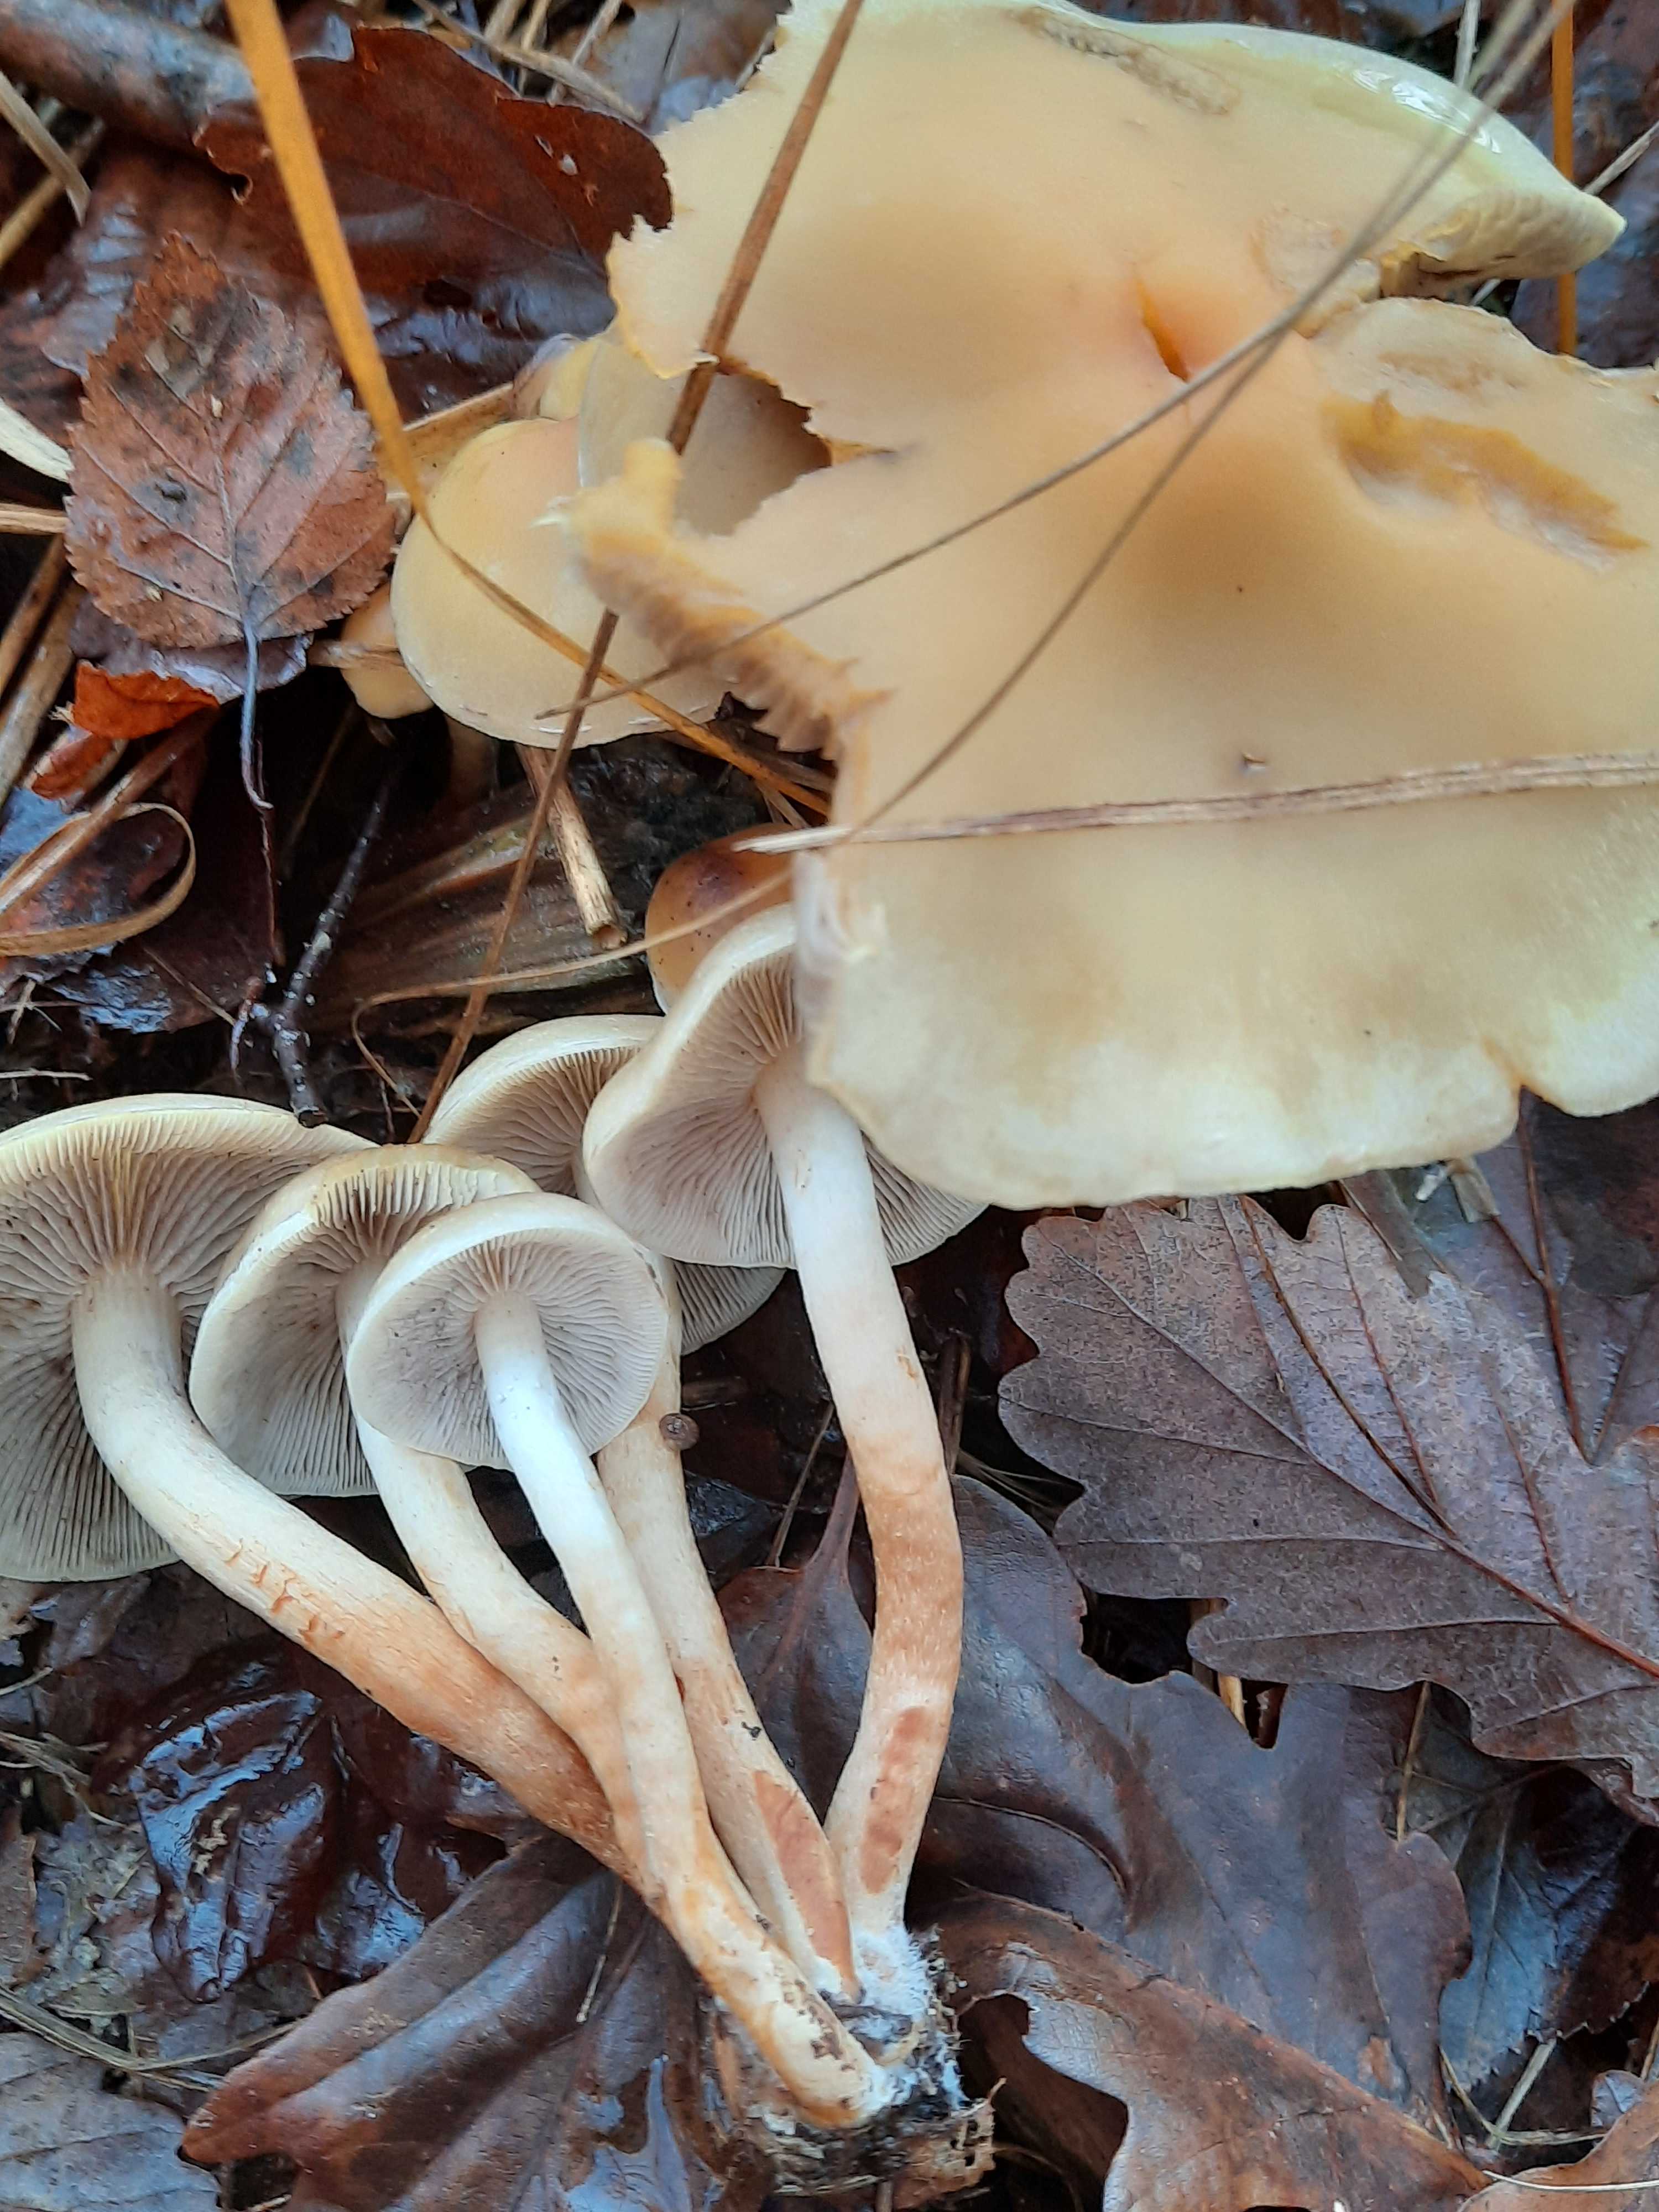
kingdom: Fungi
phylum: Basidiomycota
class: Agaricomycetes
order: Agaricales
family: Strophariaceae
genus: Hypholoma
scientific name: Hypholoma capnoides
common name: gran-svovlhat
